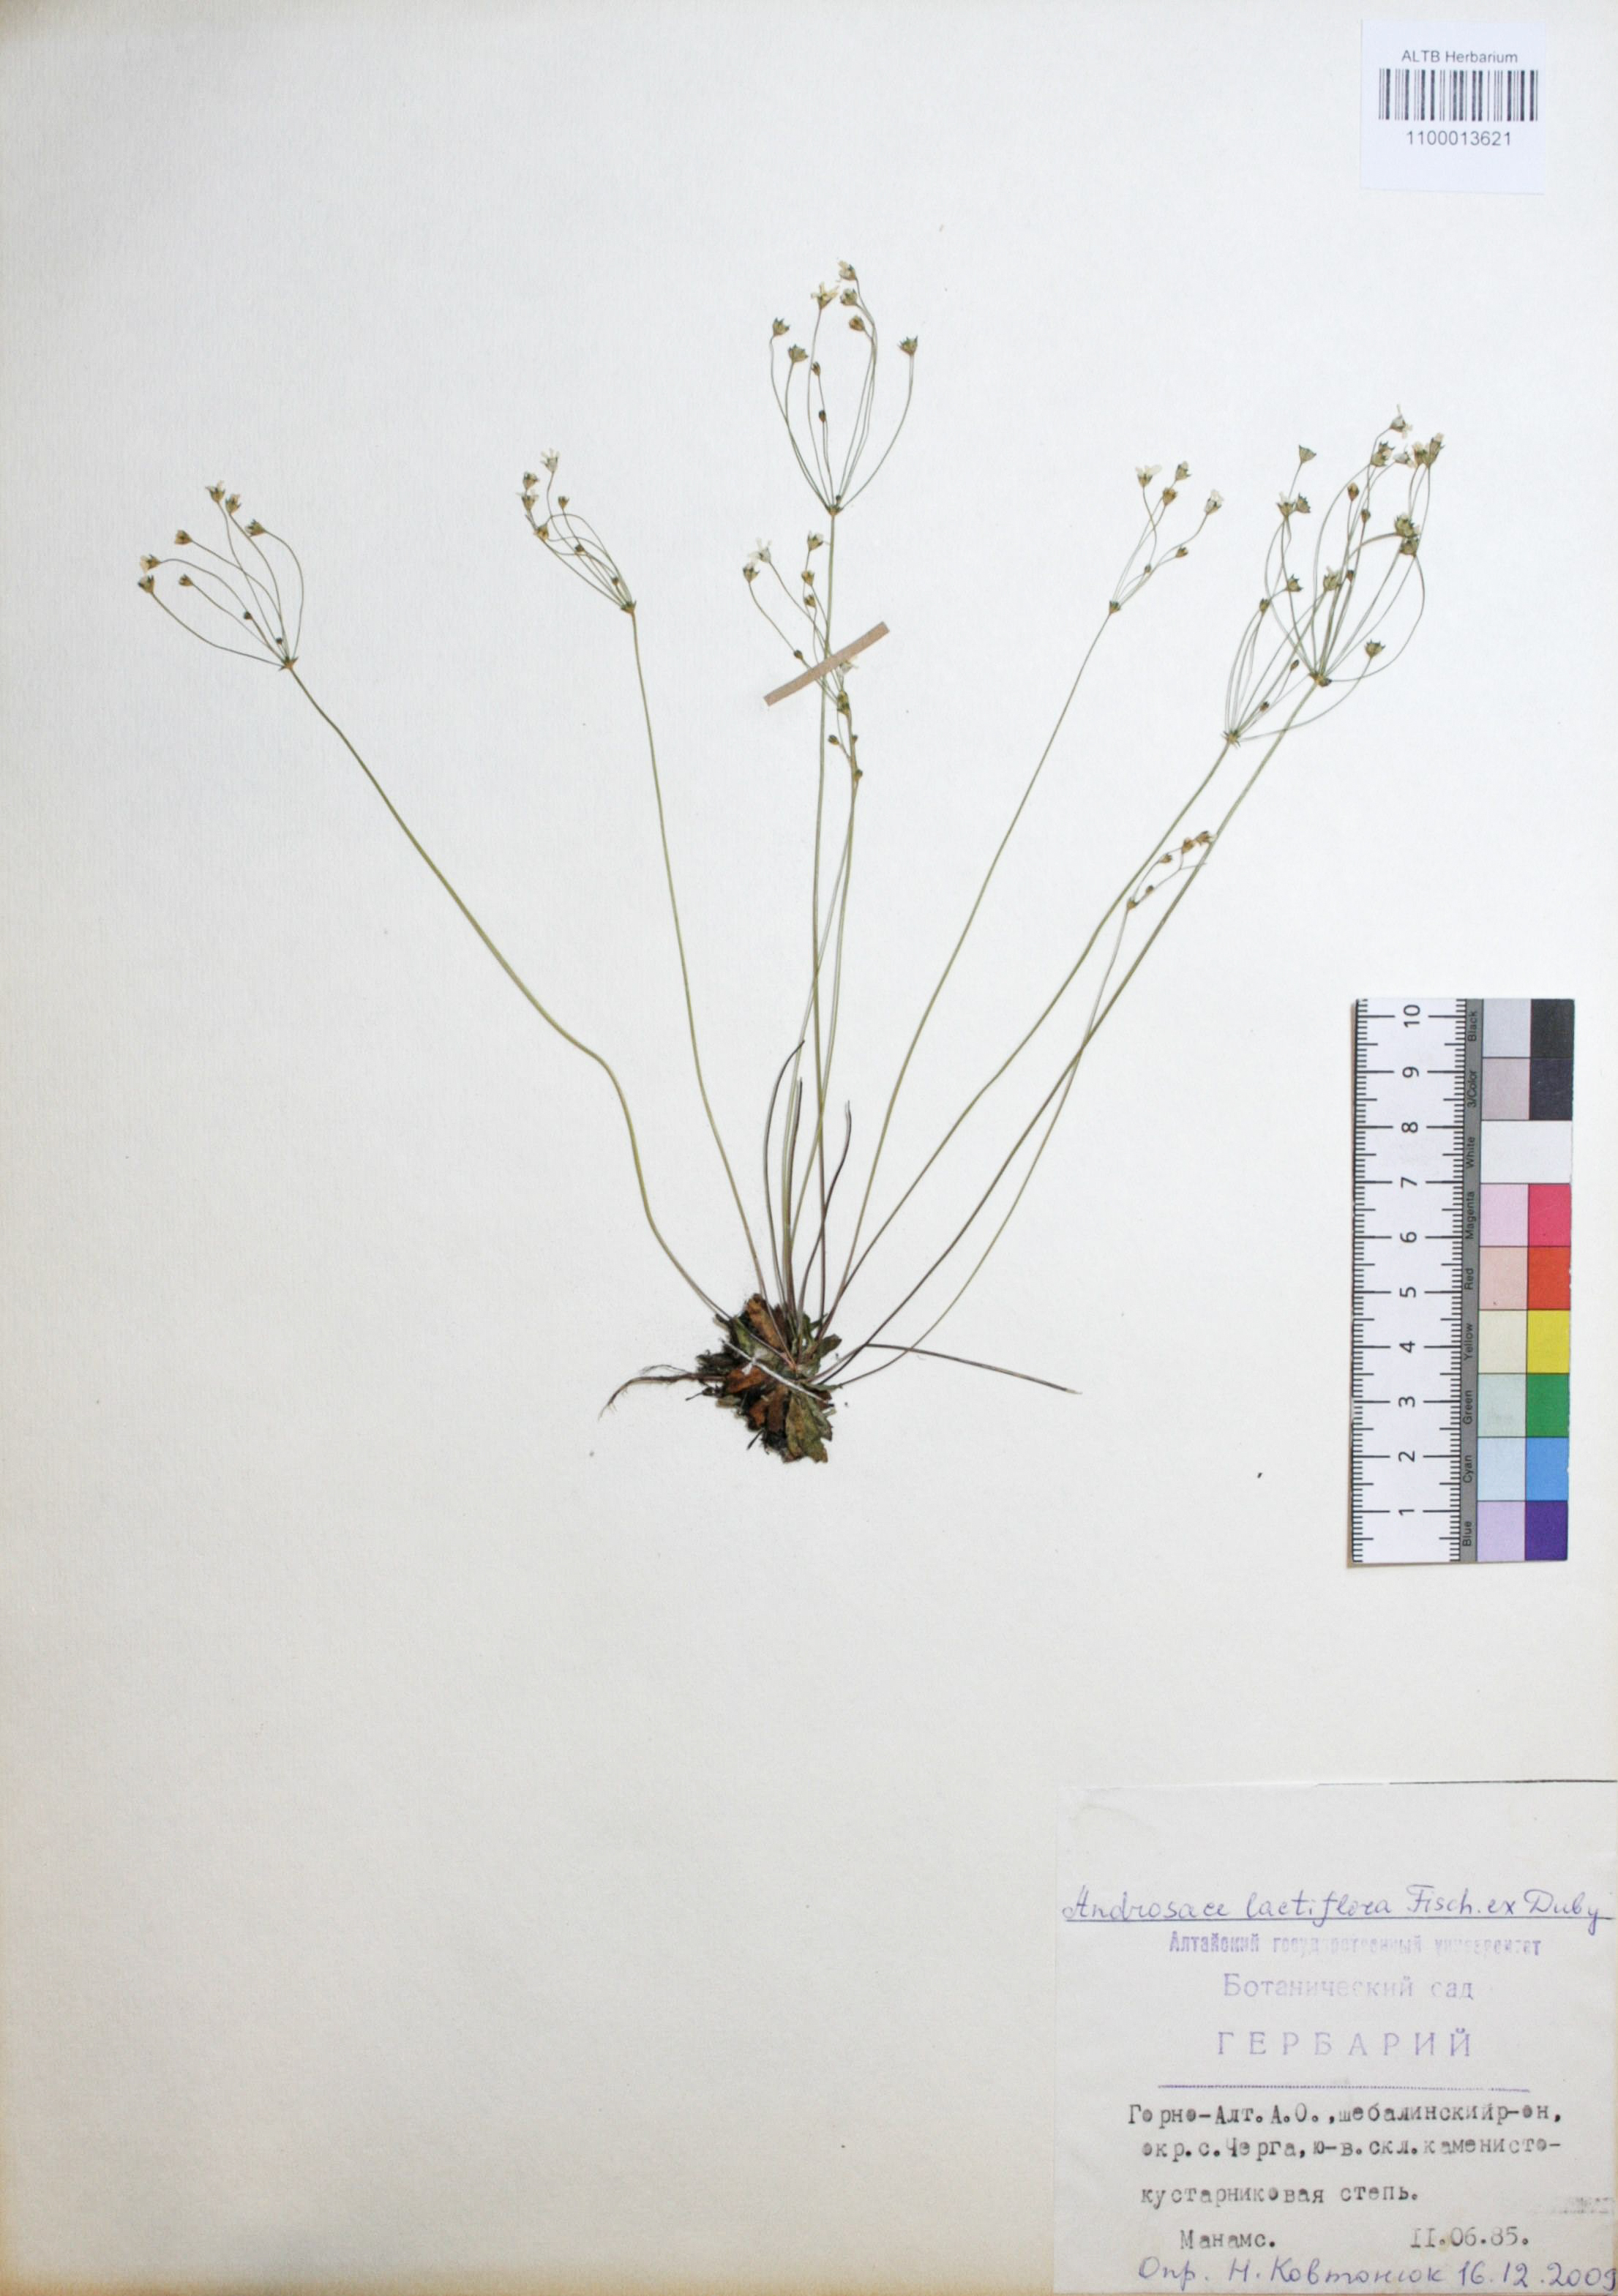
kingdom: Plantae
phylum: Tracheophyta
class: Magnoliopsida
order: Ericales
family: Primulaceae
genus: Androsace
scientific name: Androsace lactiflora
